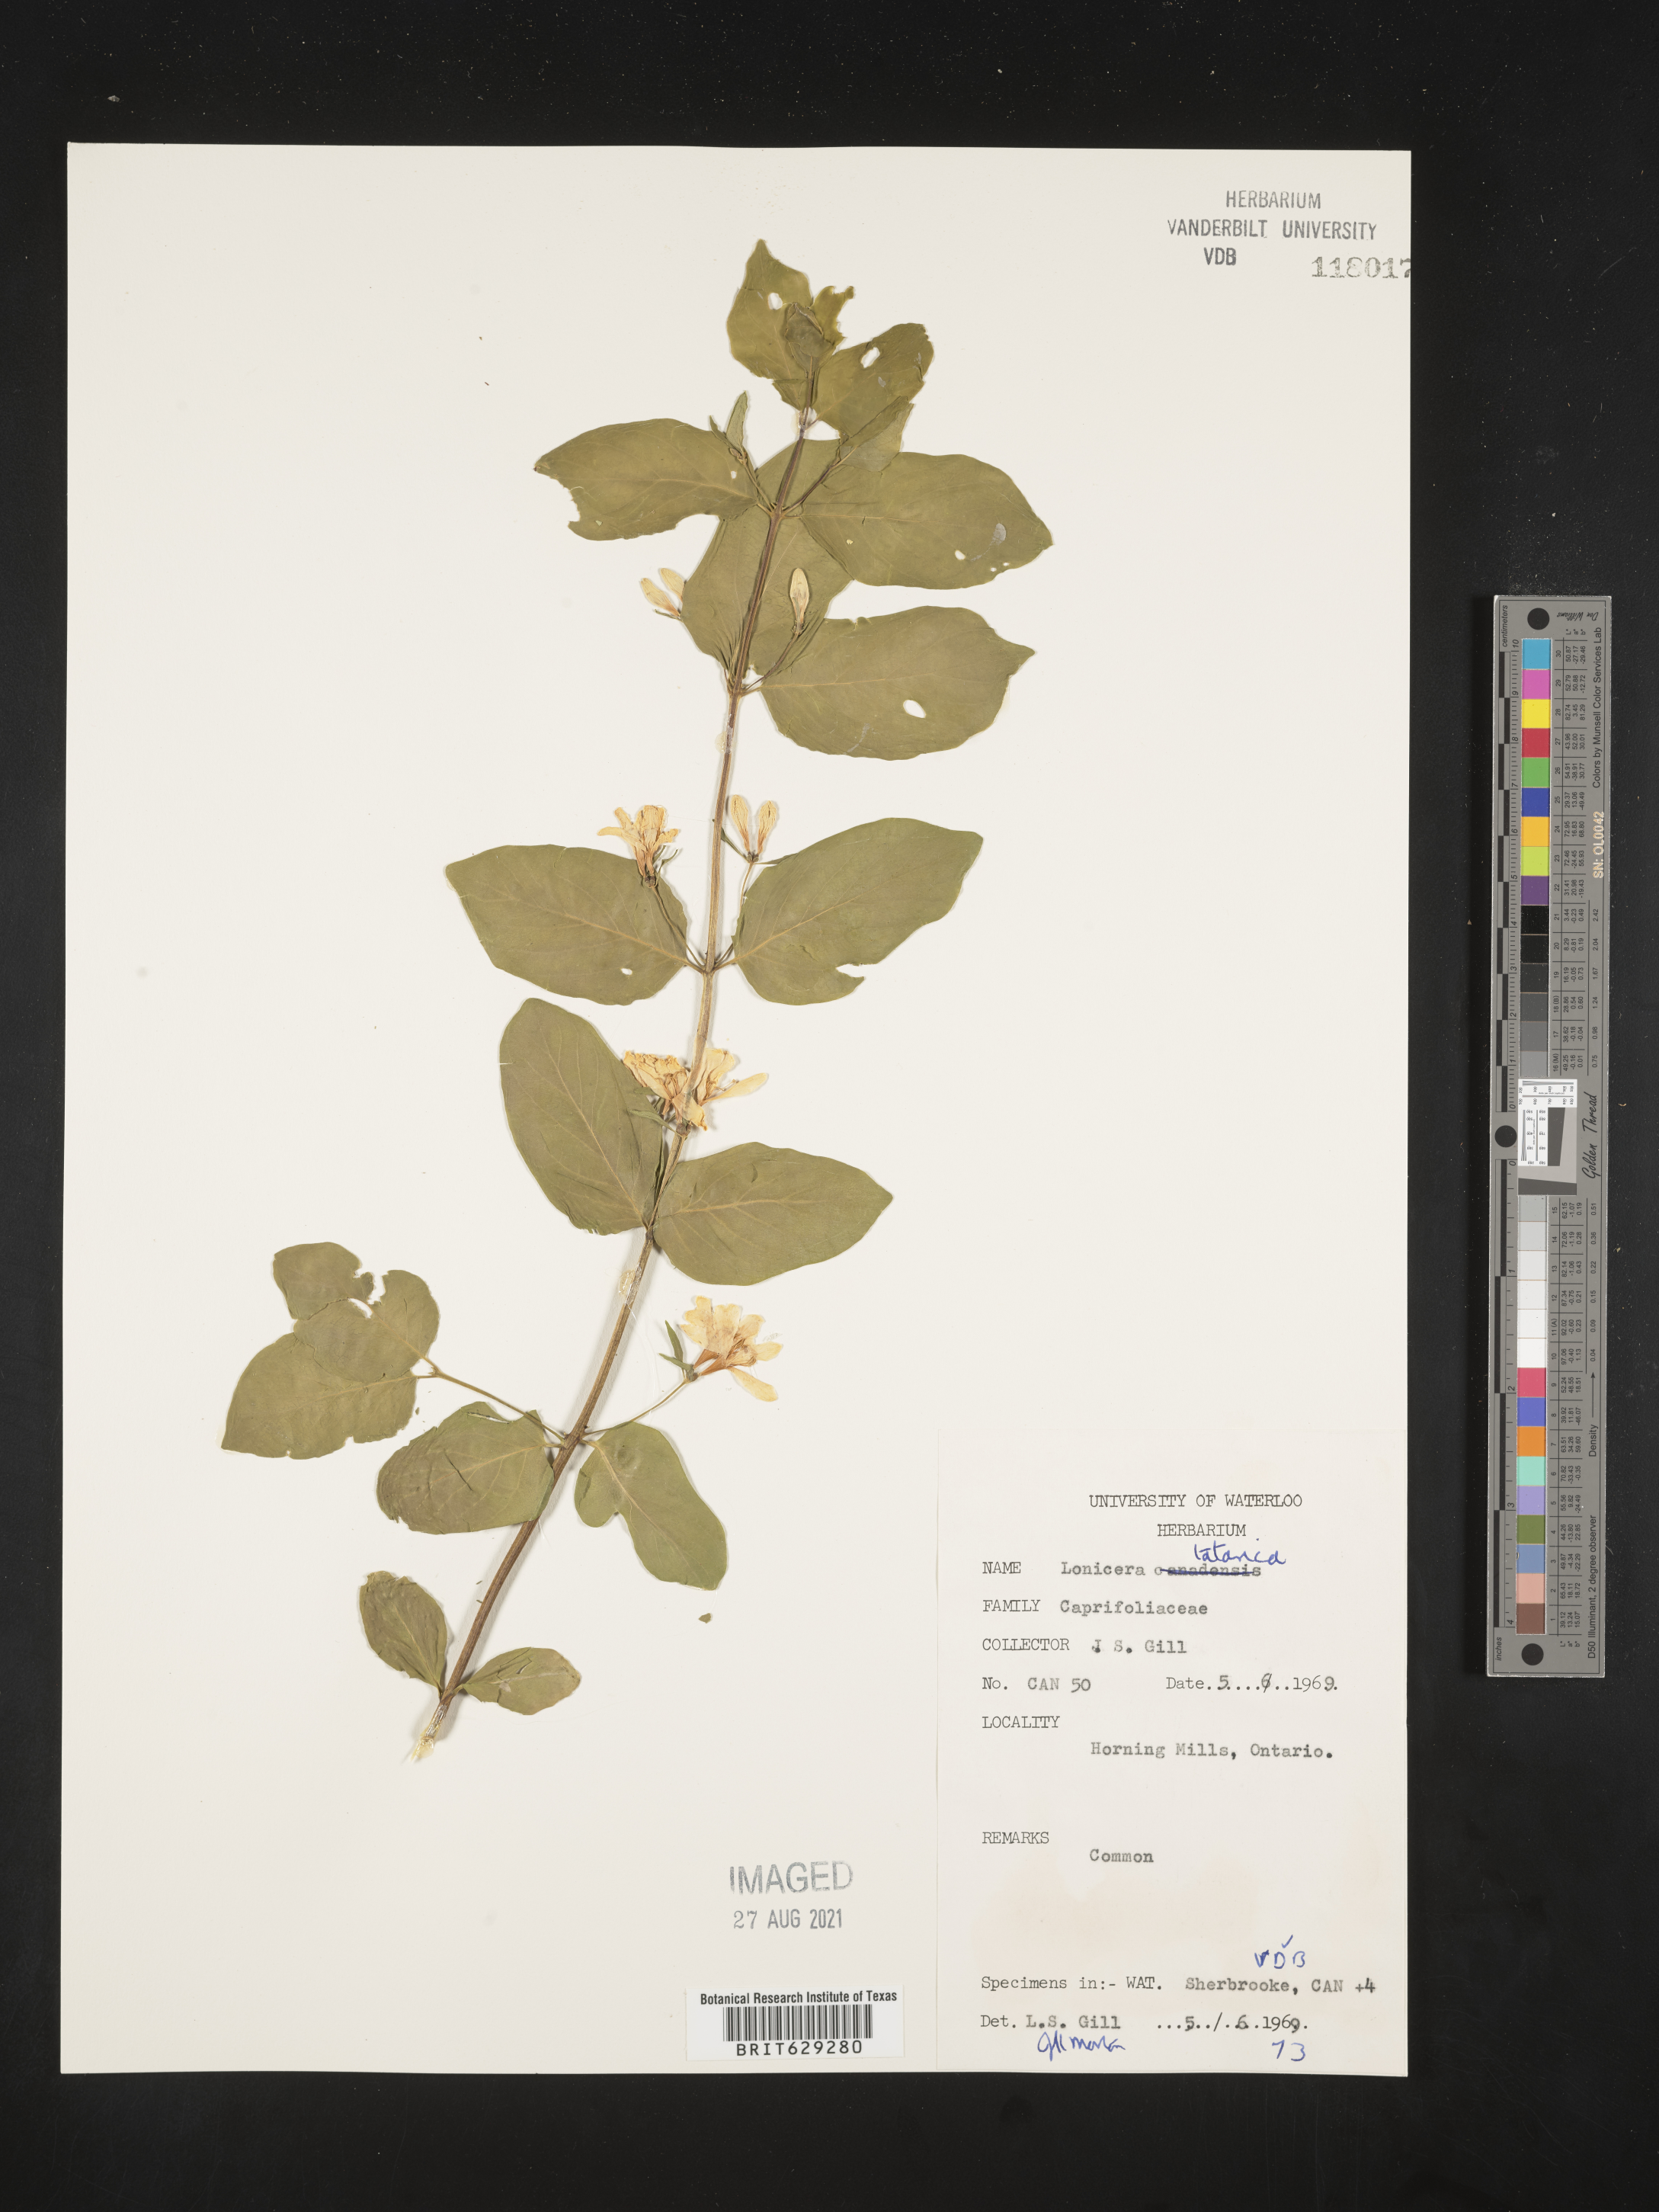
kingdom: Plantae
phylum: Tracheophyta
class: Magnoliopsida
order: Dipsacales
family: Caprifoliaceae
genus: Lonicera
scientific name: Lonicera tatarica
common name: Tatarian honeysuckle
